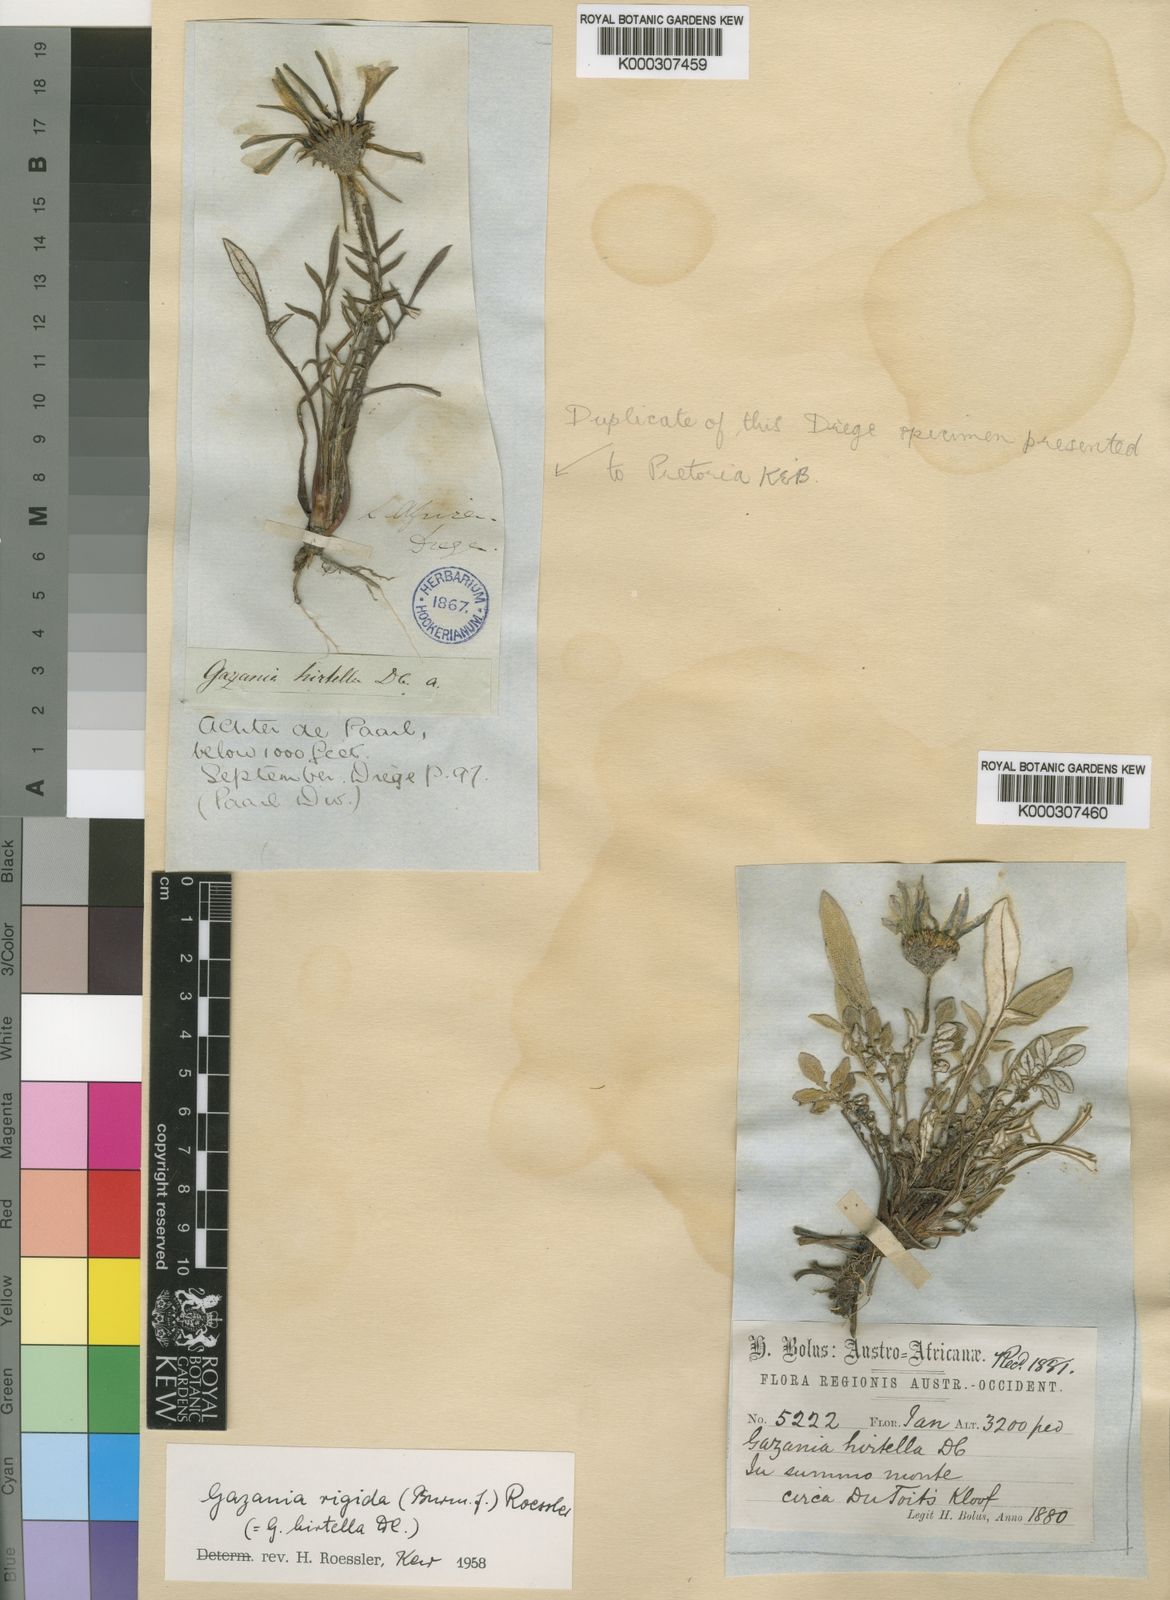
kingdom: Plantae
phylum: Tracheophyta
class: Magnoliopsida
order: Asterales
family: Asteraceae
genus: Gazania
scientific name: Gazania rigida
